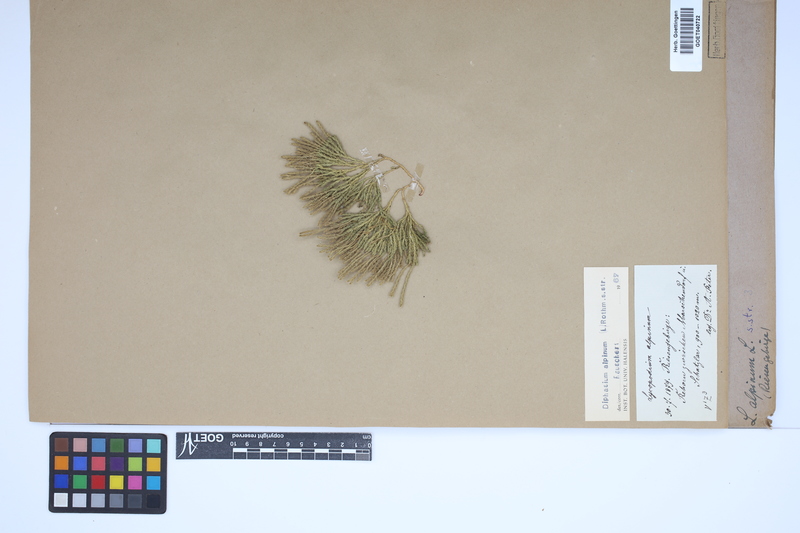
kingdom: Plantae
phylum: Tracheophyta
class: Lycopodiopsida
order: Lycopodiales
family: Lycopodiaceae
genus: Diphasiastrum
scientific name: Diphasiastrum alpinum
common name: Alpine clubmoss
